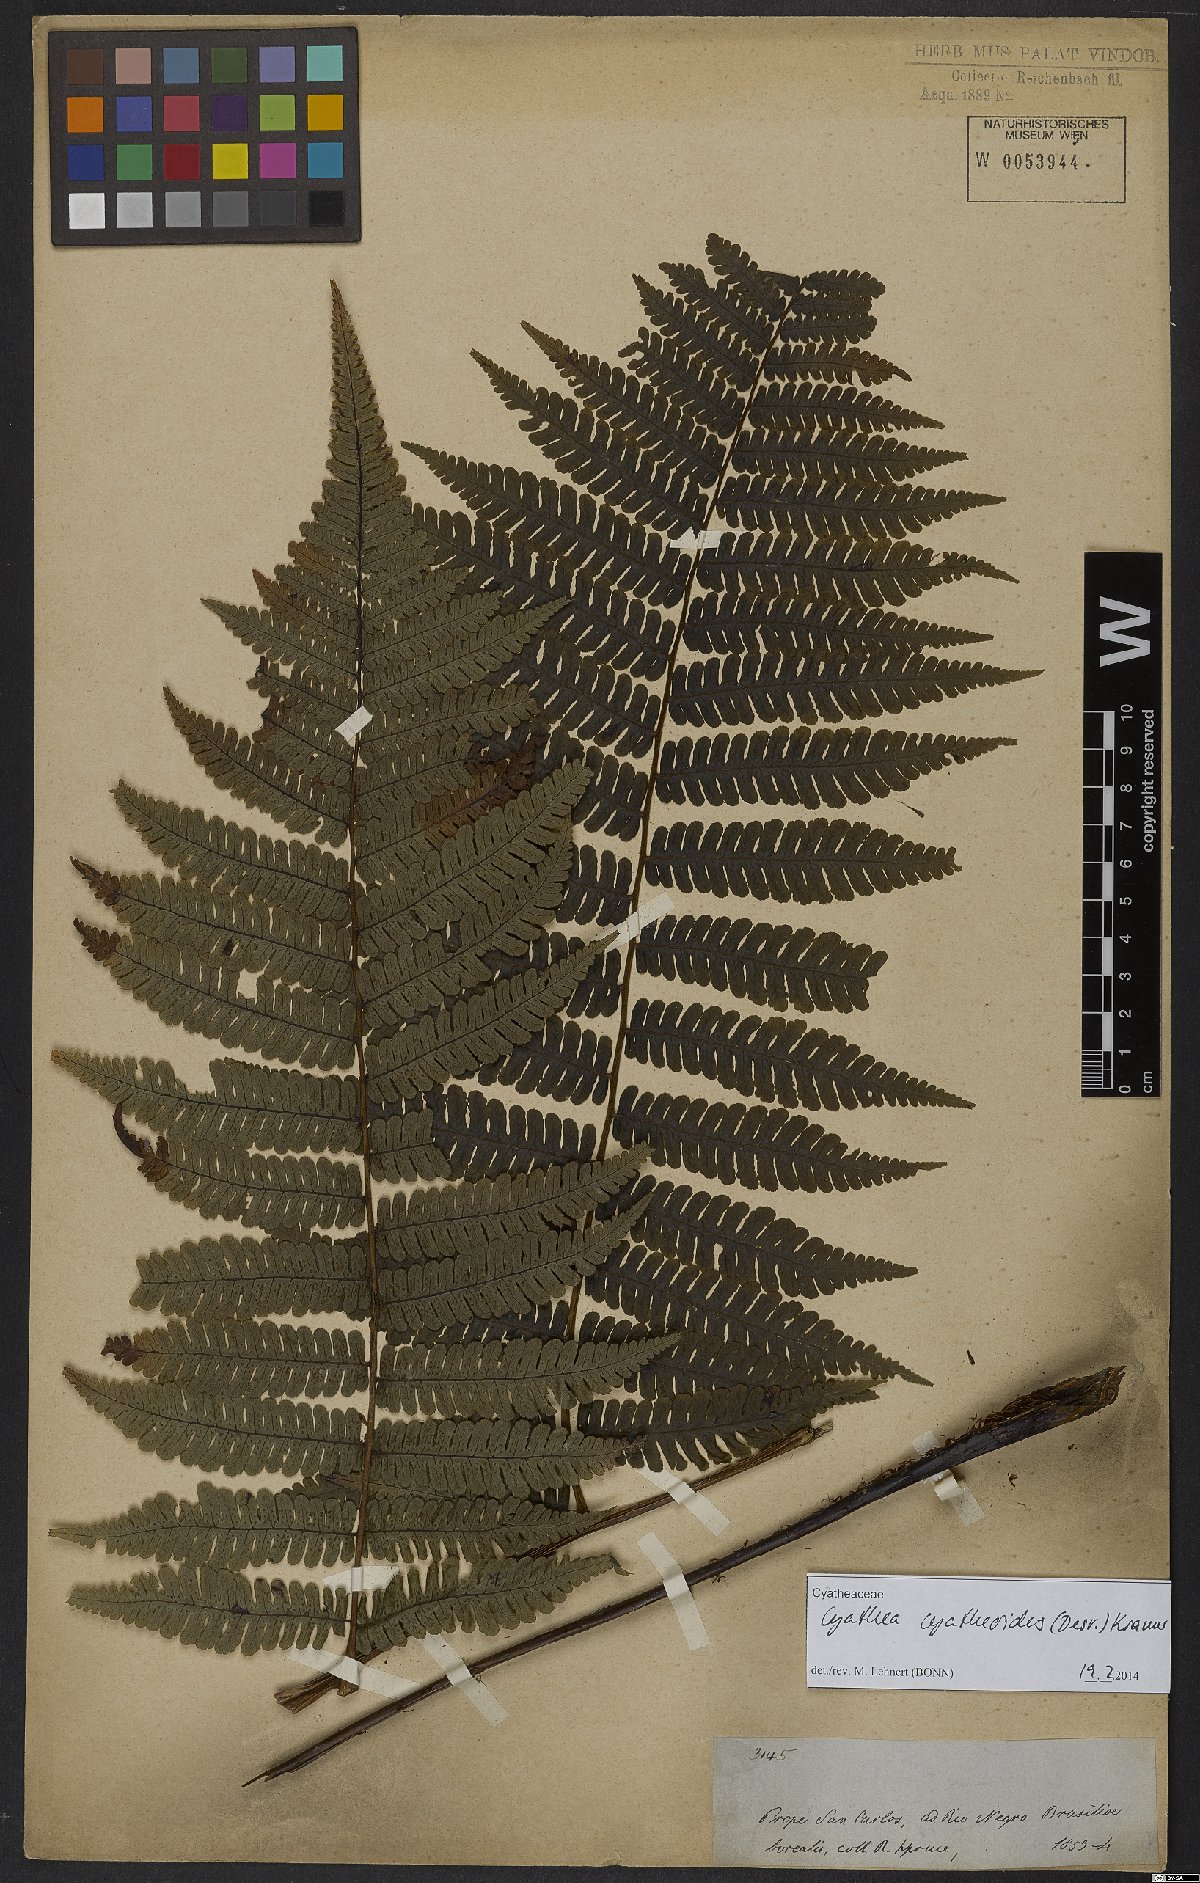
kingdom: Plantae
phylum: Tracheophyta
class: Polypodiopsida
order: Cyatheales
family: Cyatheaceae
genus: Cyathea
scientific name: Cyathea cyatheoides
